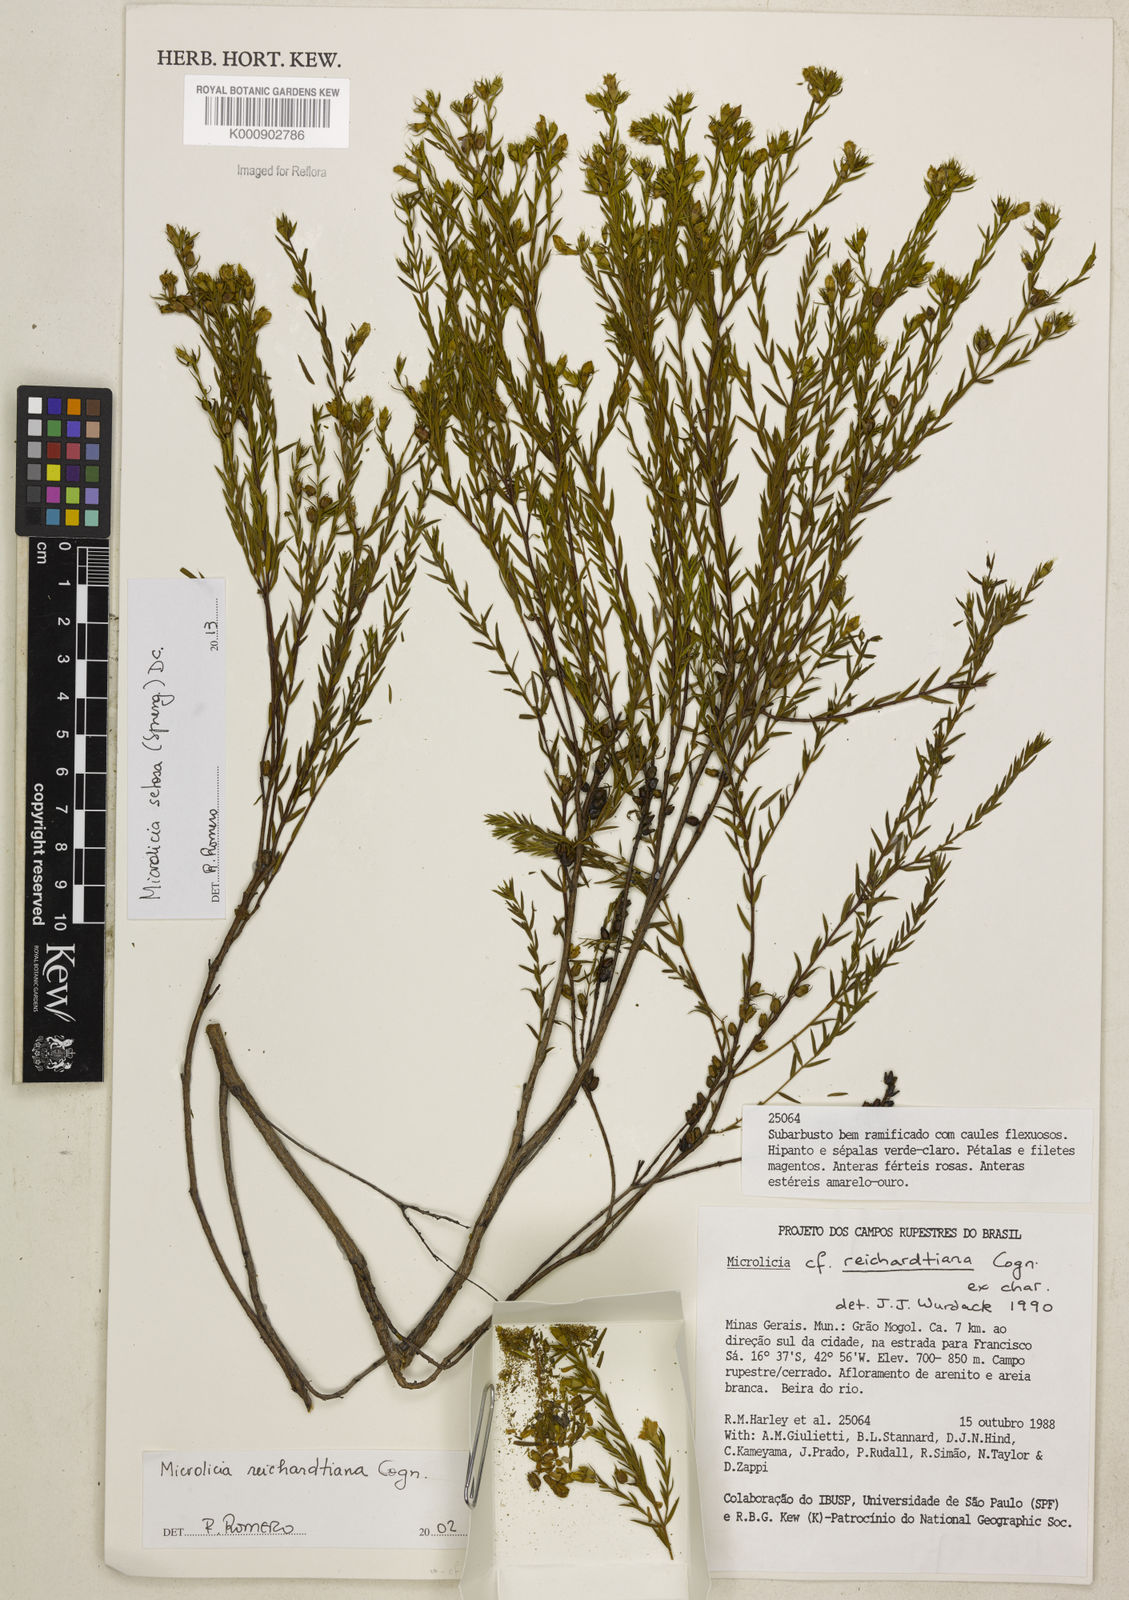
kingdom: Plantae
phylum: Tracheophyta
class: Magnoliopsida
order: Myrtales
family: Melastomataceae
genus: Microlicia
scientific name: Microlicia setosa
